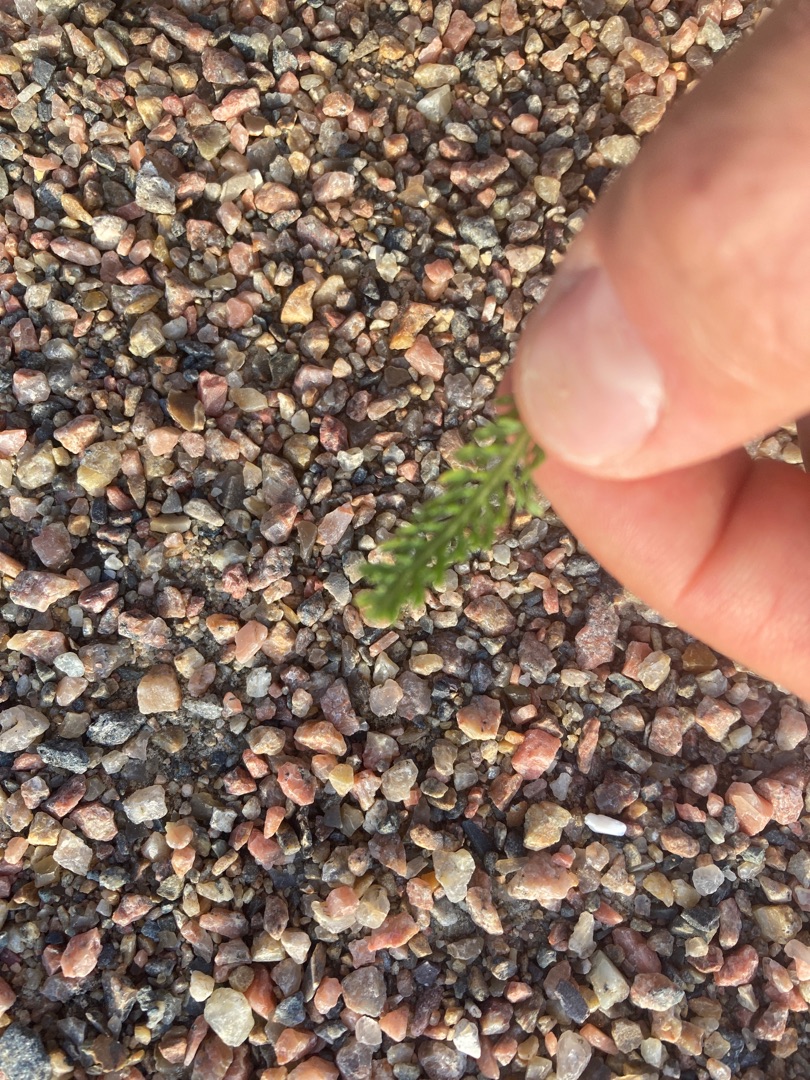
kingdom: Plantae
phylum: Tracheophyta
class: Magnoliopsida
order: Asterales
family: Asteraceae
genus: Achillea
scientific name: Achillea millefolium
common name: Almindelig røllike
